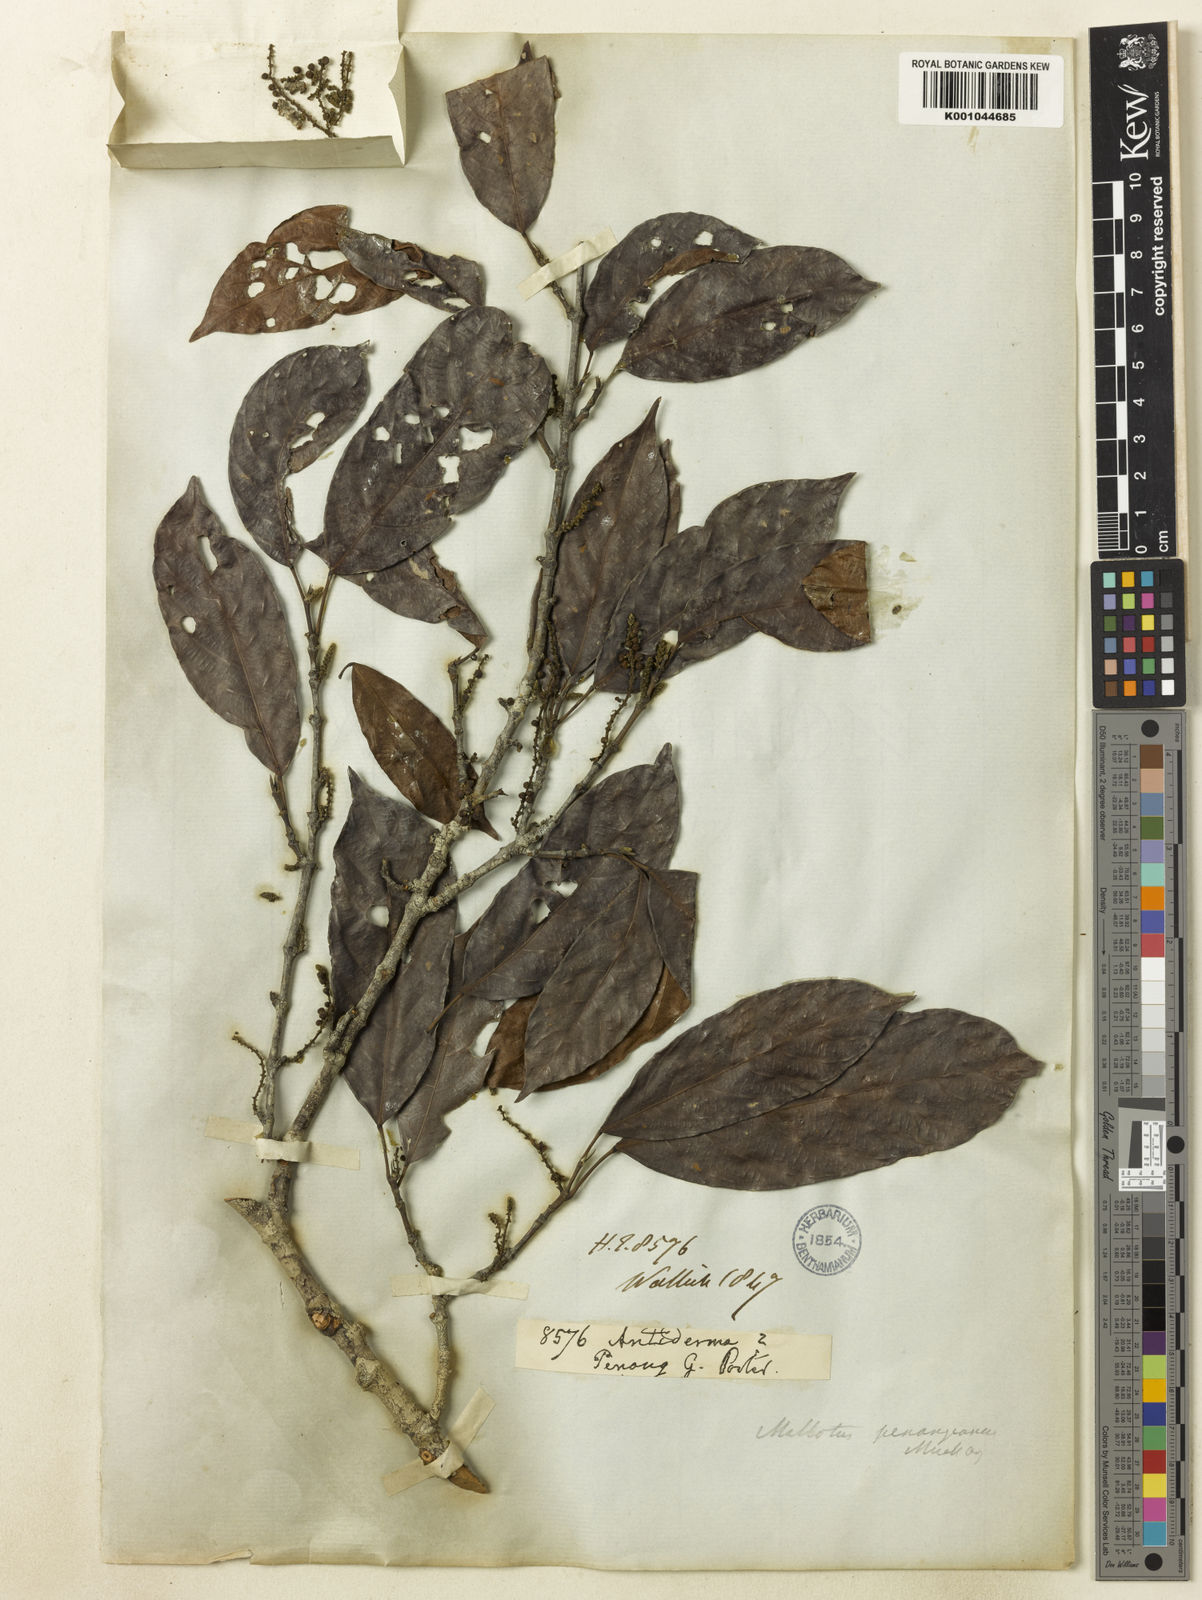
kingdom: Plantae
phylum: Tracheophyta
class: Magnoliopsida
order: Malpighiales
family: Euphorbiaceae
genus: Hancea
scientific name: Hancea penangensis
